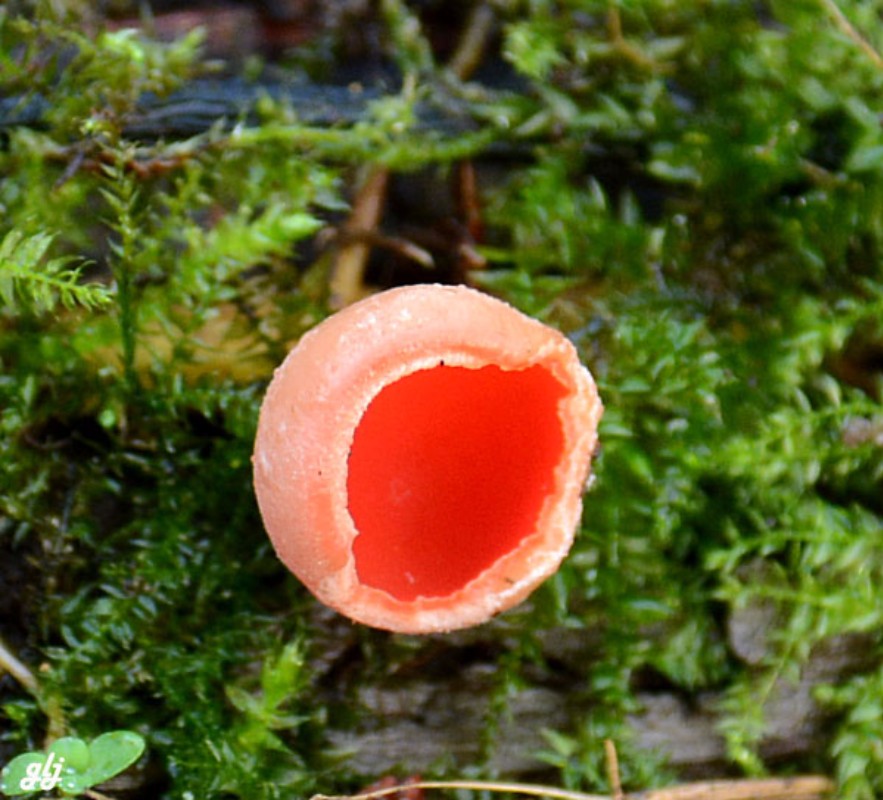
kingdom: Fungi
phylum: Ascomycota
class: Pezizomycetes
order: Pezizales
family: Sarcoscyphaceae
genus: Sarcoscypha
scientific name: Sarcoscypha austriaca
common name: krølhåret pragtbæger
